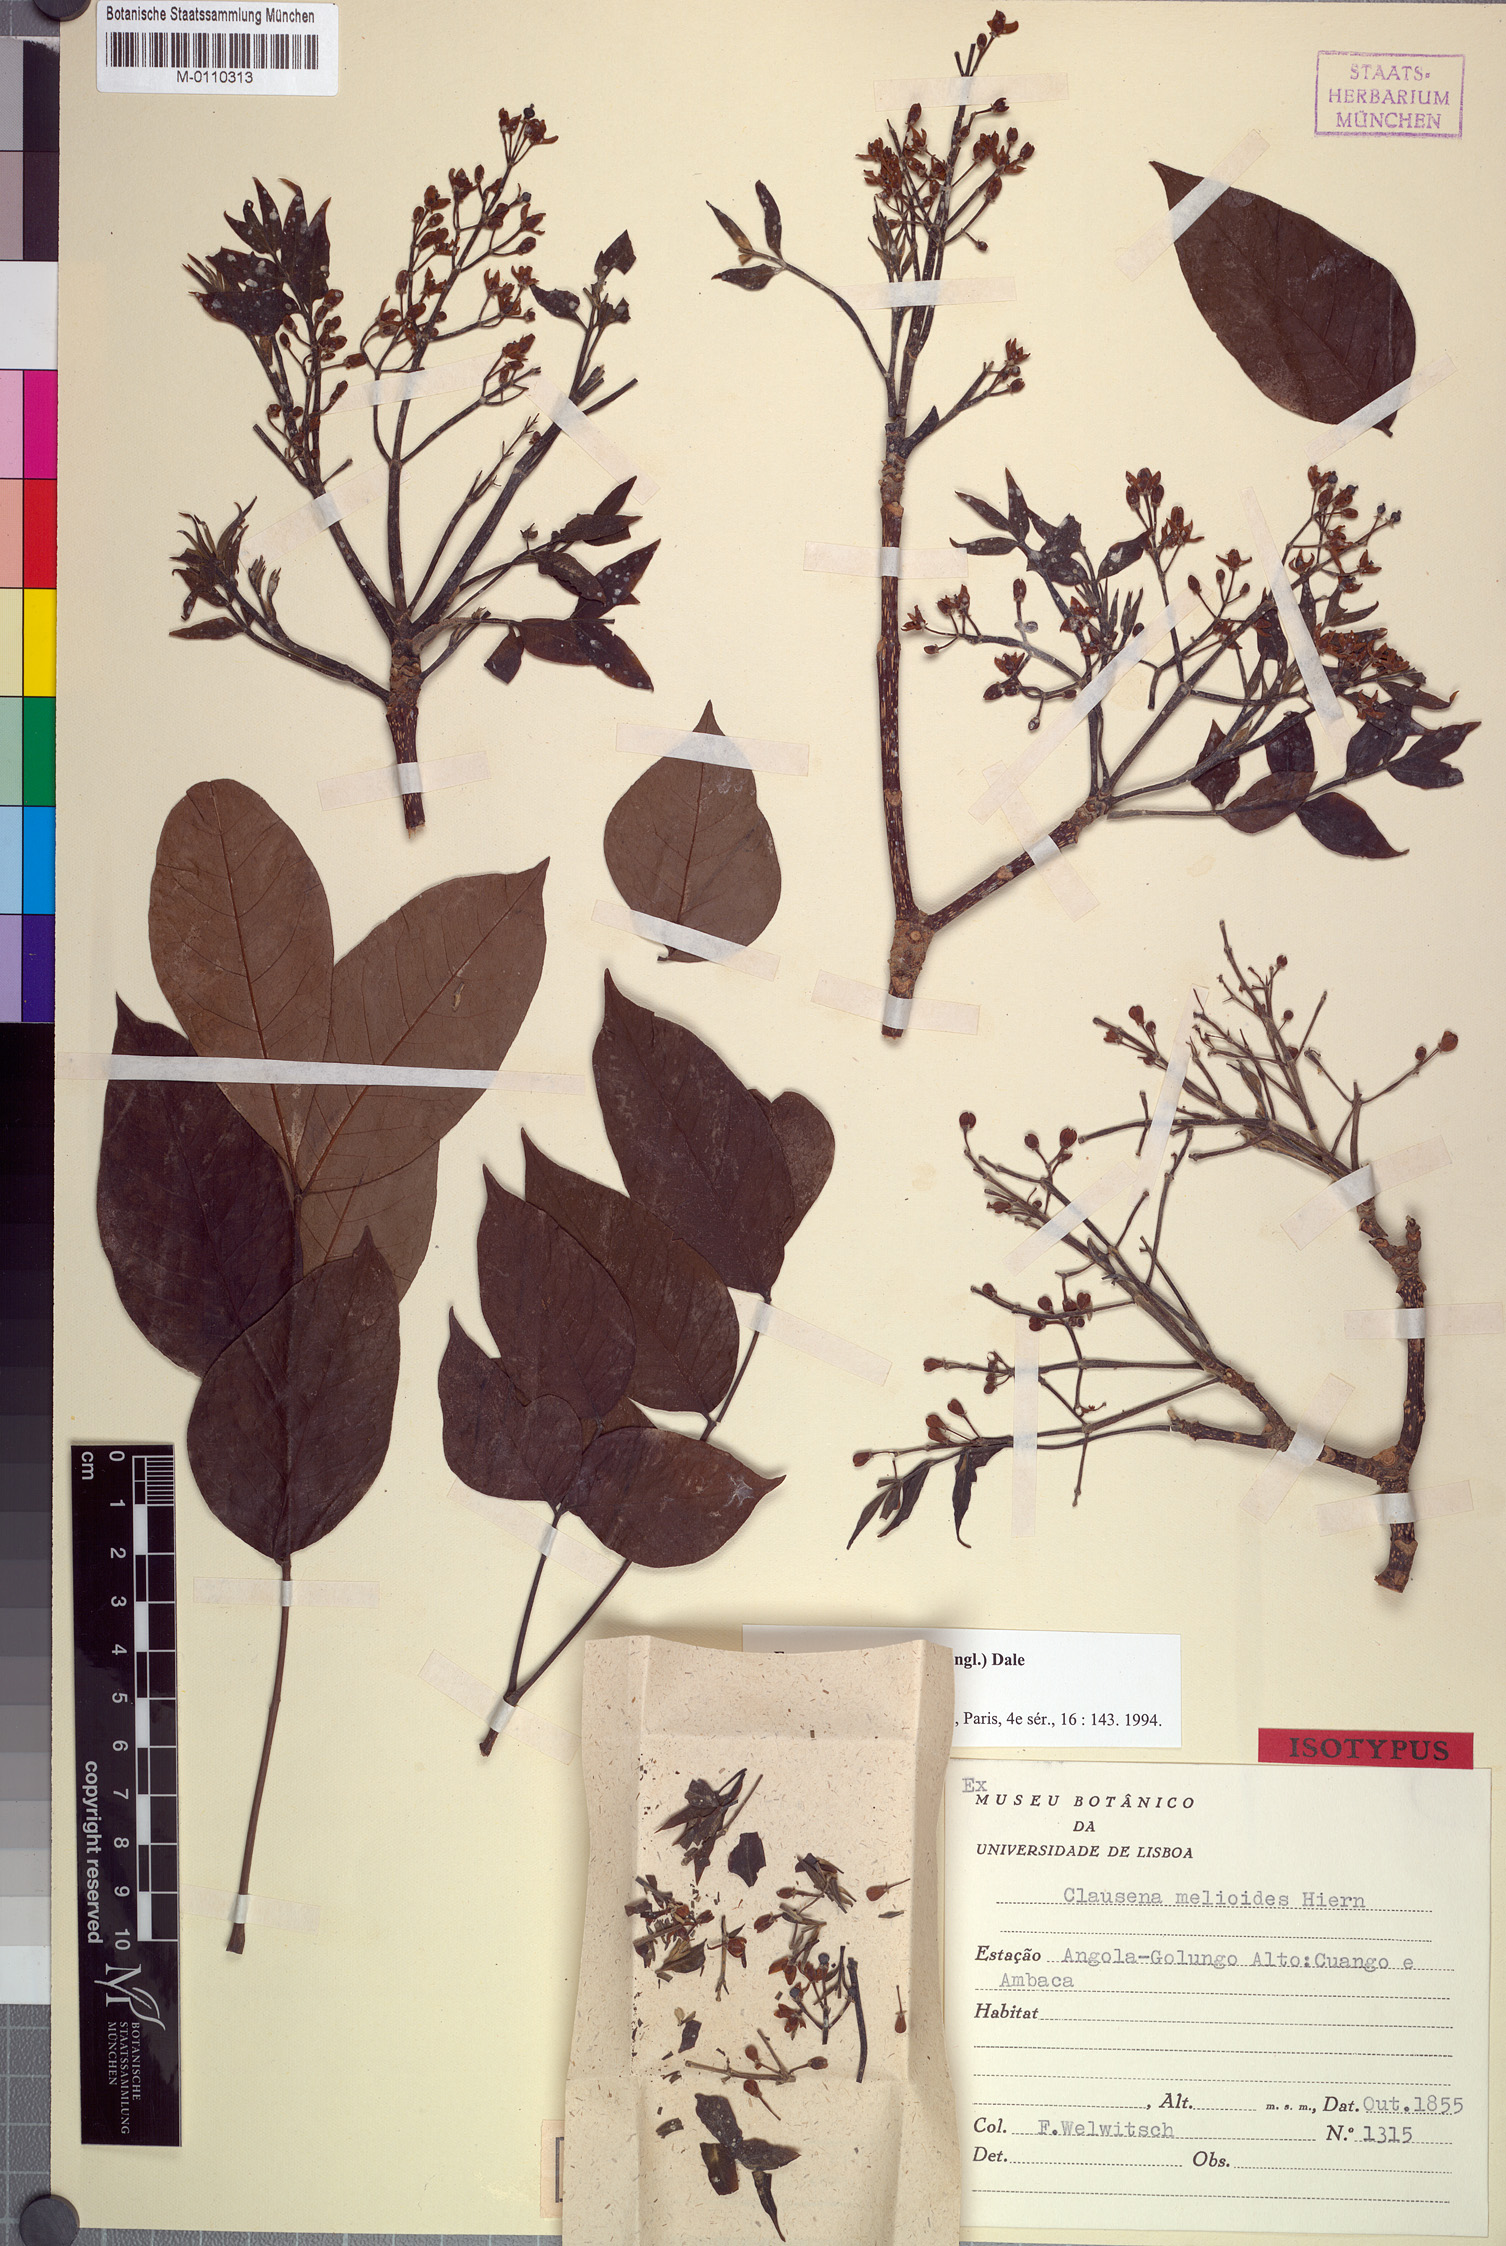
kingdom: Plantae
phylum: Tracheophyta
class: Magnoliopsida
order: Sapindales
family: Rutaceae
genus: Fagaropsis
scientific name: Fagaropsis angolensis
